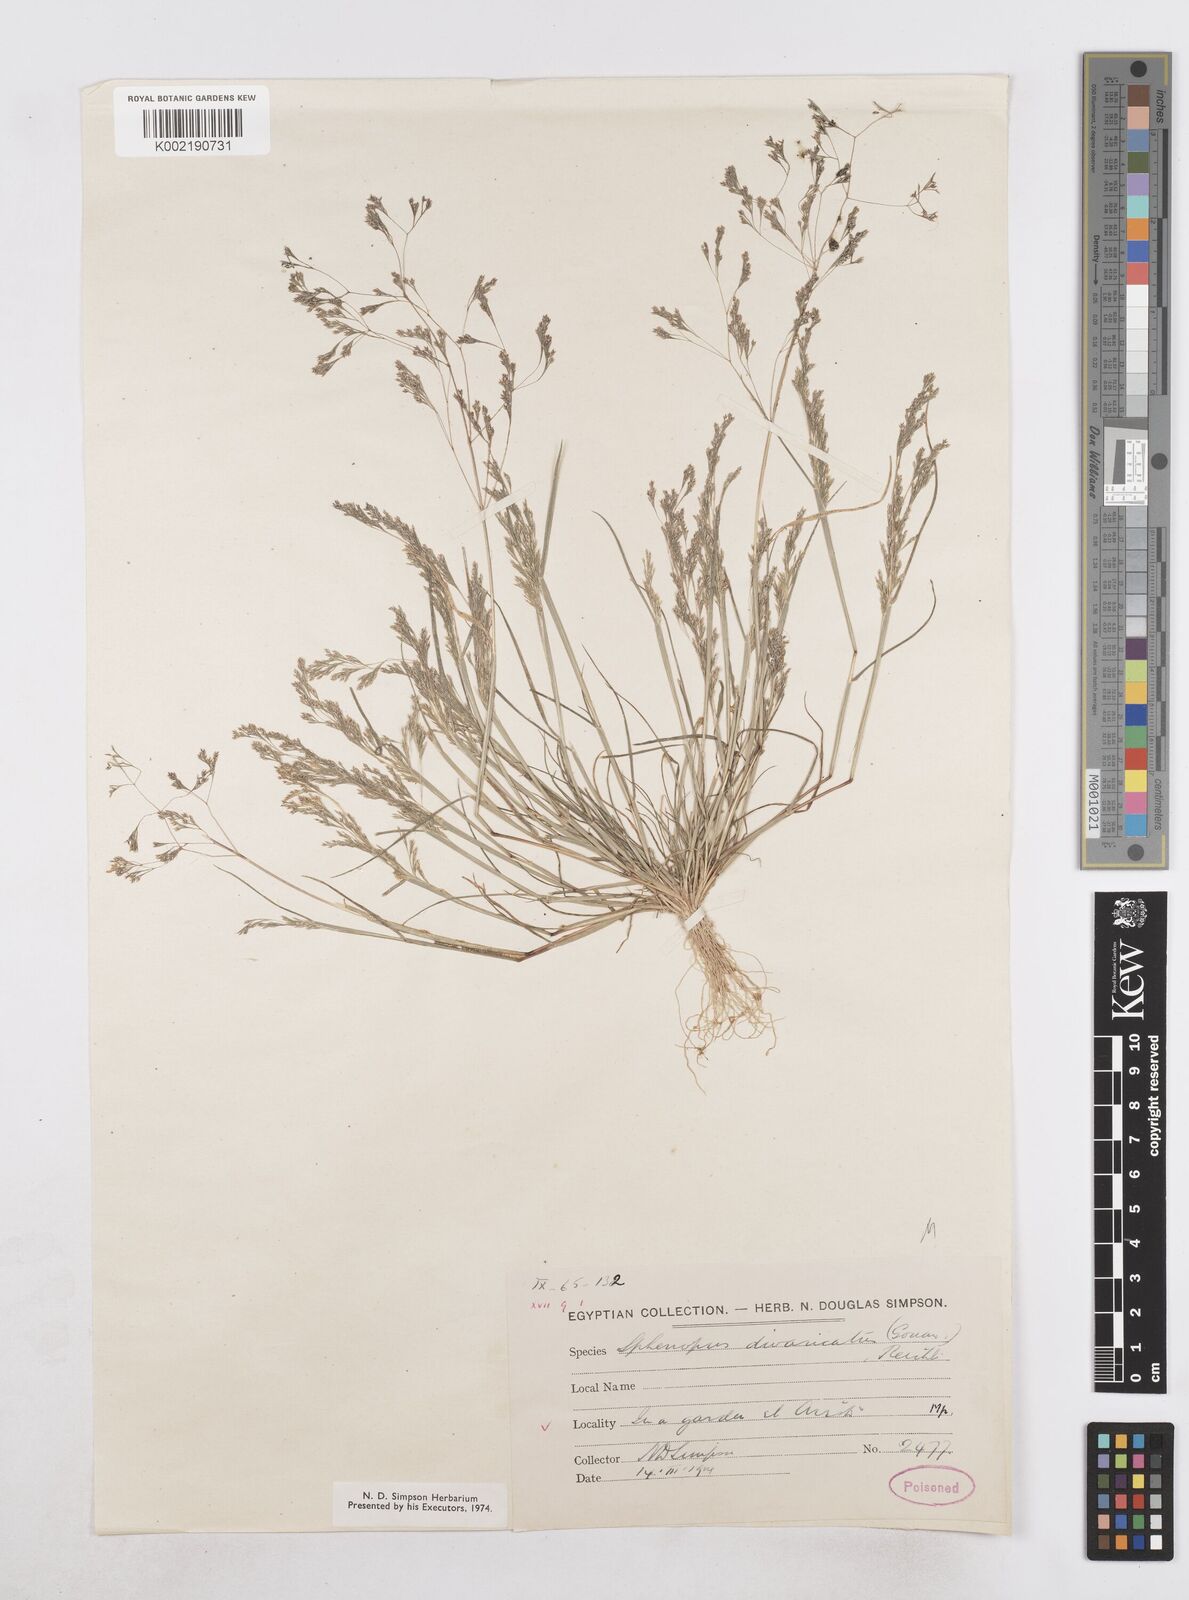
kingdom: Plantae
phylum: Tracheophyta
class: Liliopsida
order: Poales
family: Poaceae
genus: Sphenopus
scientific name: Sphenopus divaricatus
